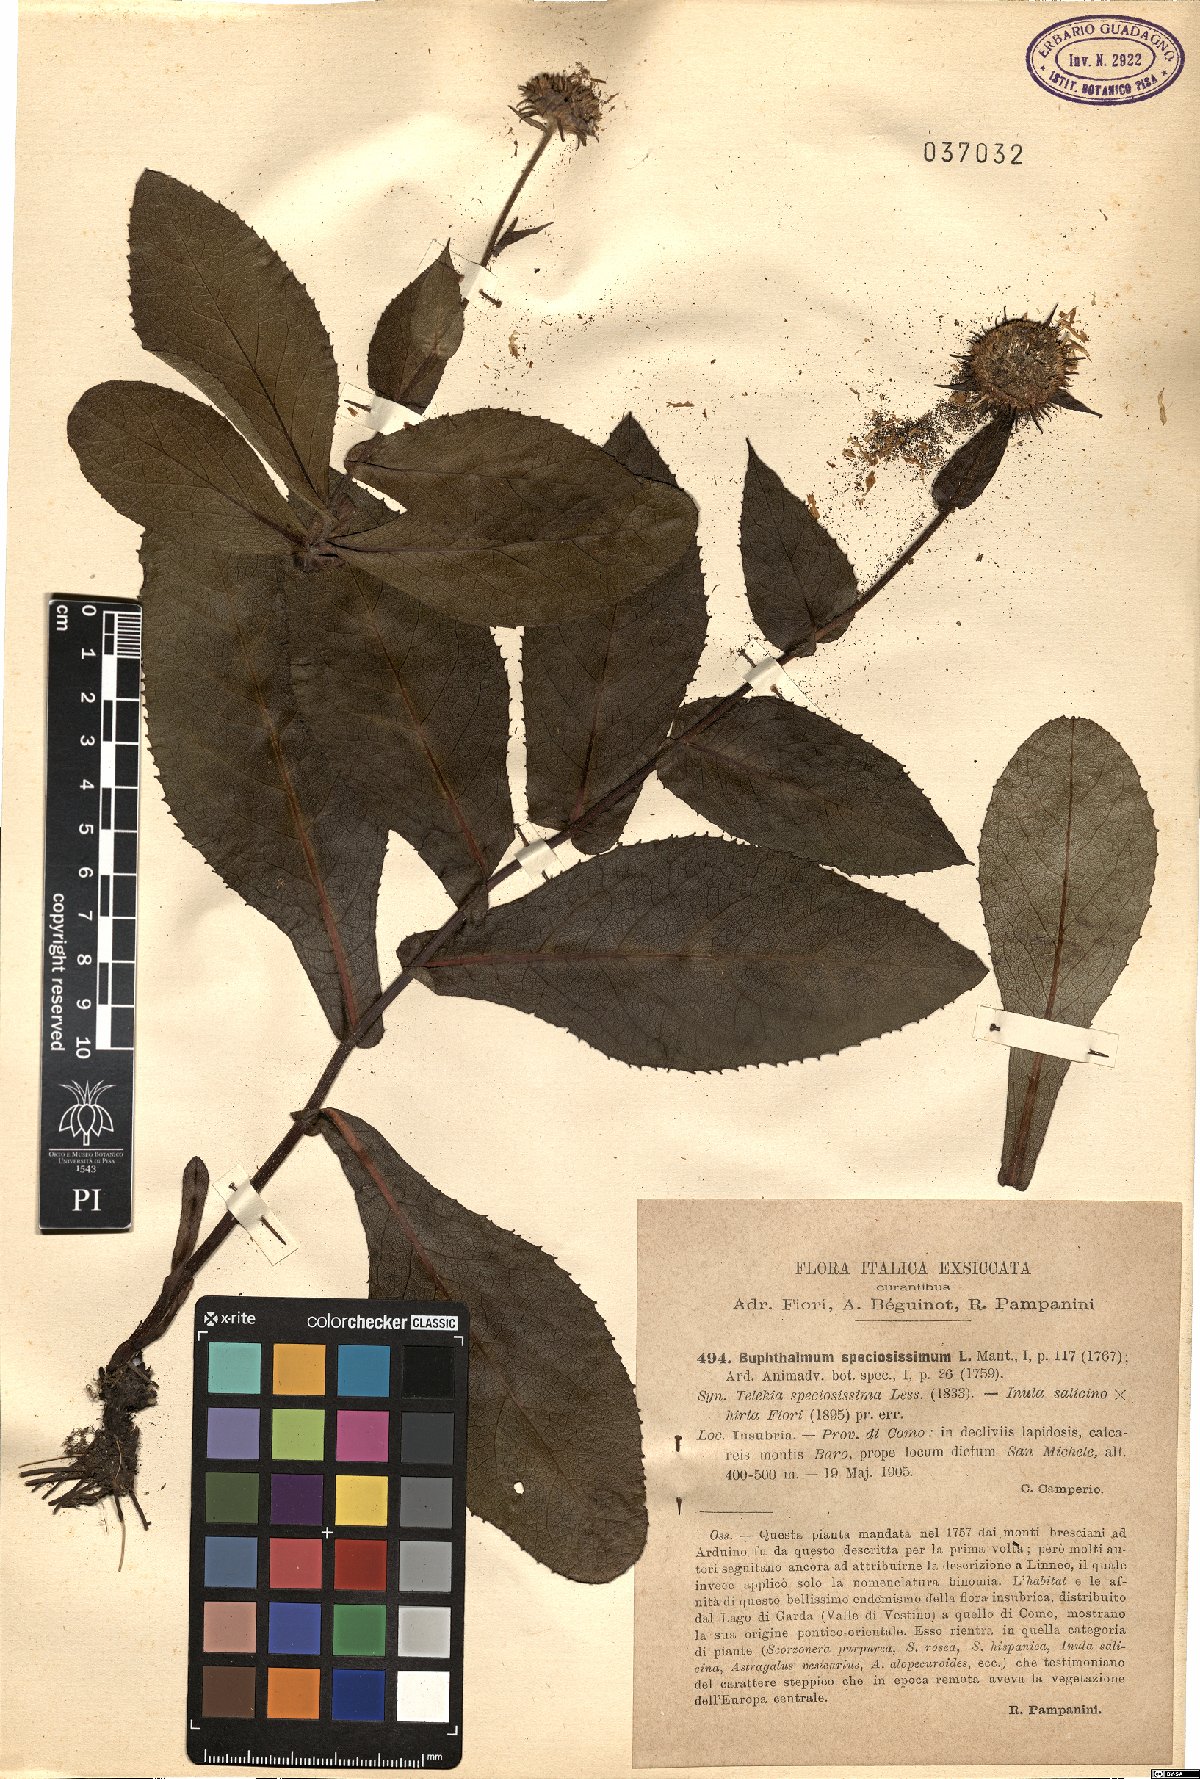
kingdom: Plantae
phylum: Tracheophyta
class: Magnoliopsida
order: Asterales
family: Asteraceae
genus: Buphthalmum
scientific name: Buphthalmum speciosissimum
